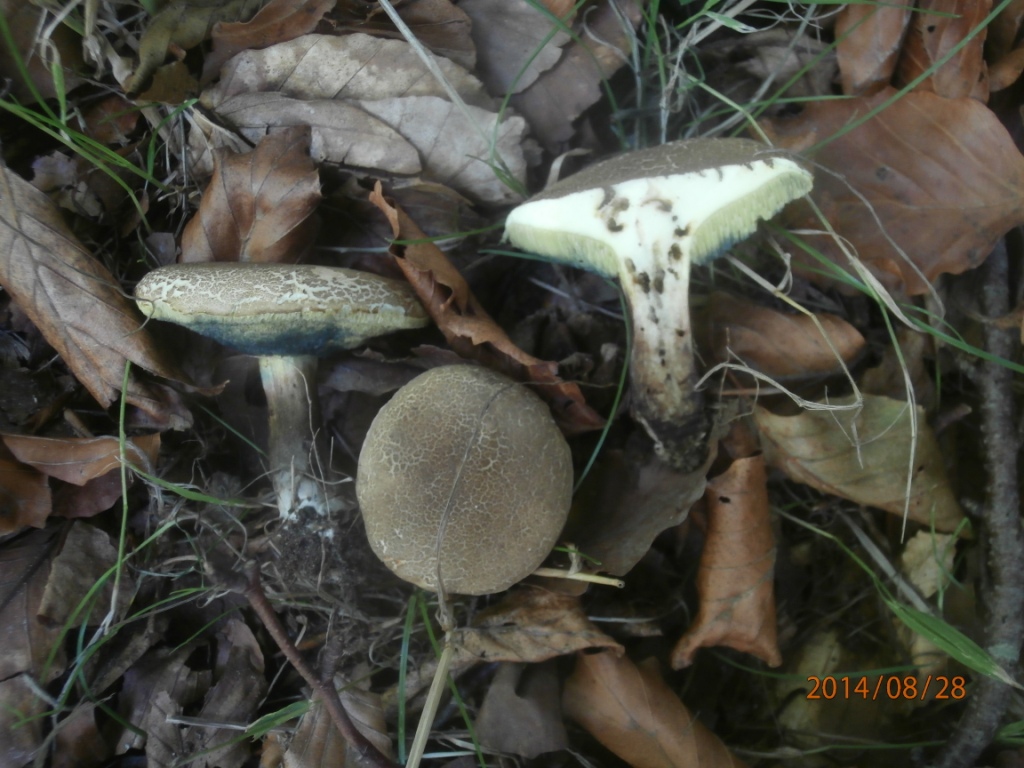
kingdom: Fungi
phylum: Basidiomycota
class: Agaricomycetes
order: Boletales
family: Boletaceae
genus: Xerocomellus
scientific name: Xerocomellus porosporus
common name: hvidsprukken rørhat
